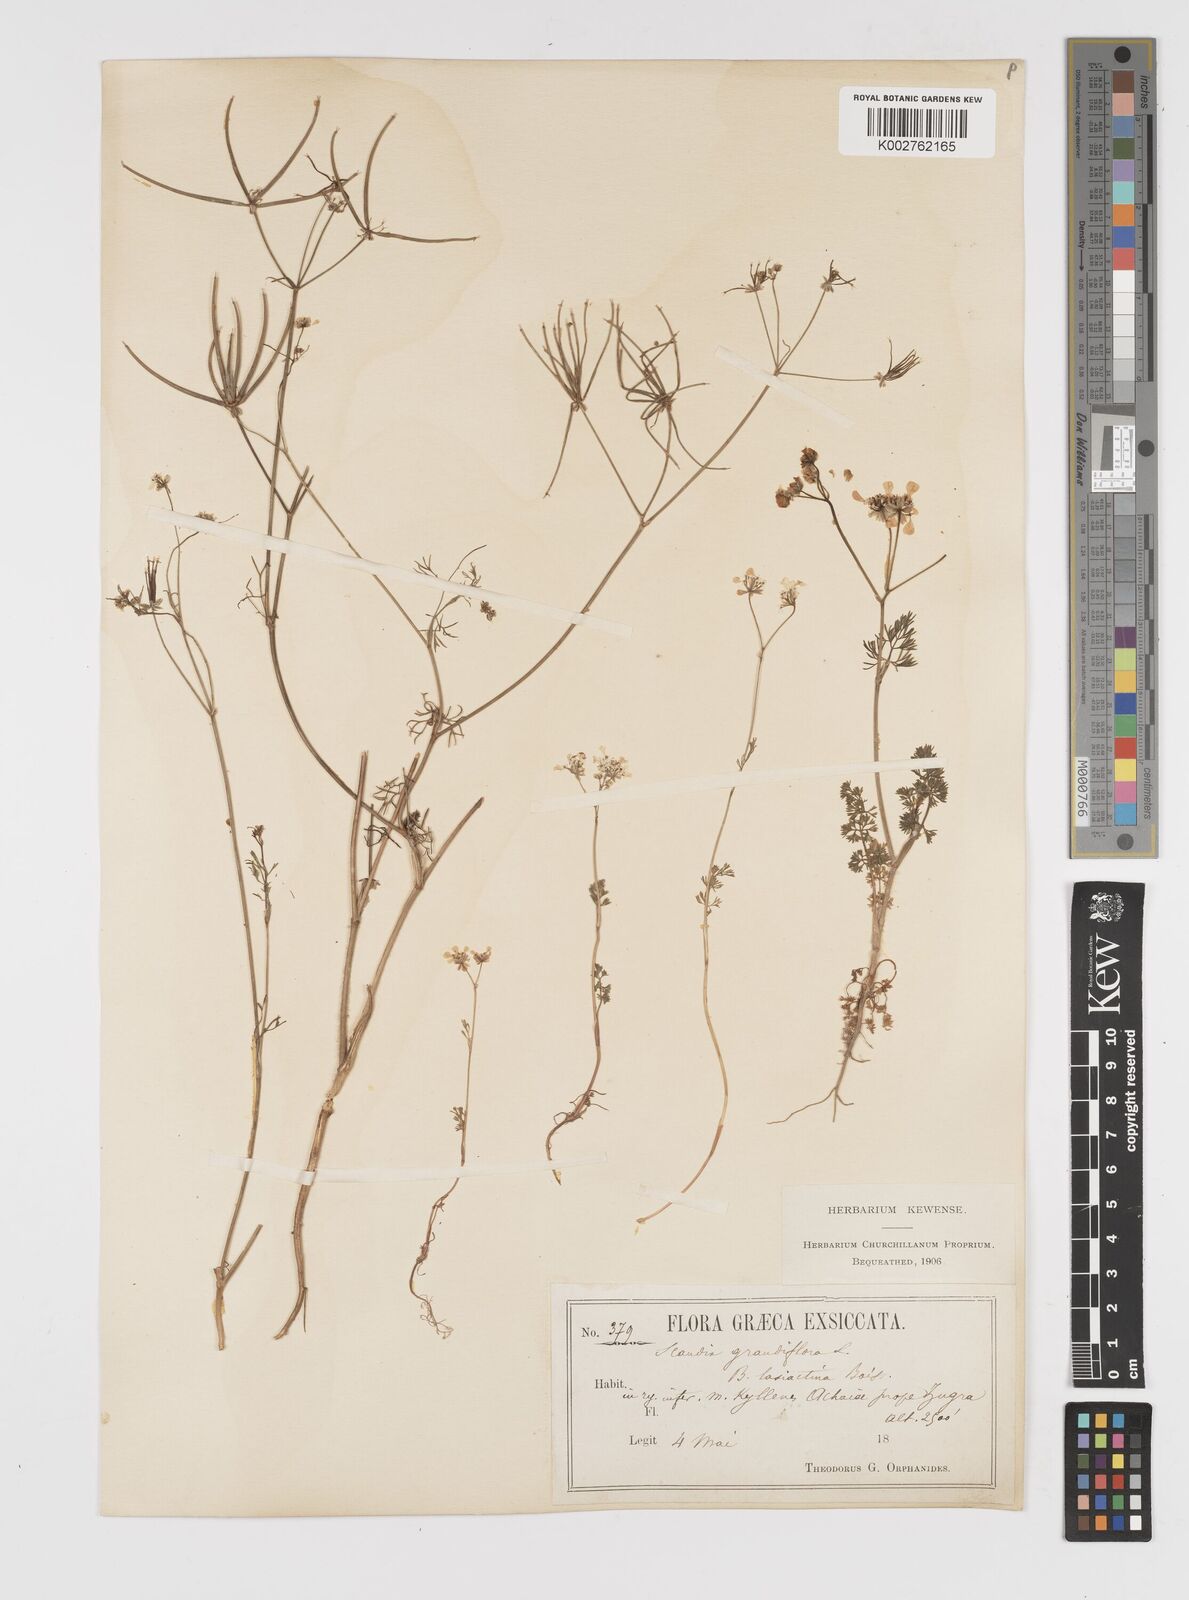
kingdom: Plantae
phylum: Tracheophyta
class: Magnoliopsida
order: Apiales
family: Apiaceae
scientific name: Apiaceae
